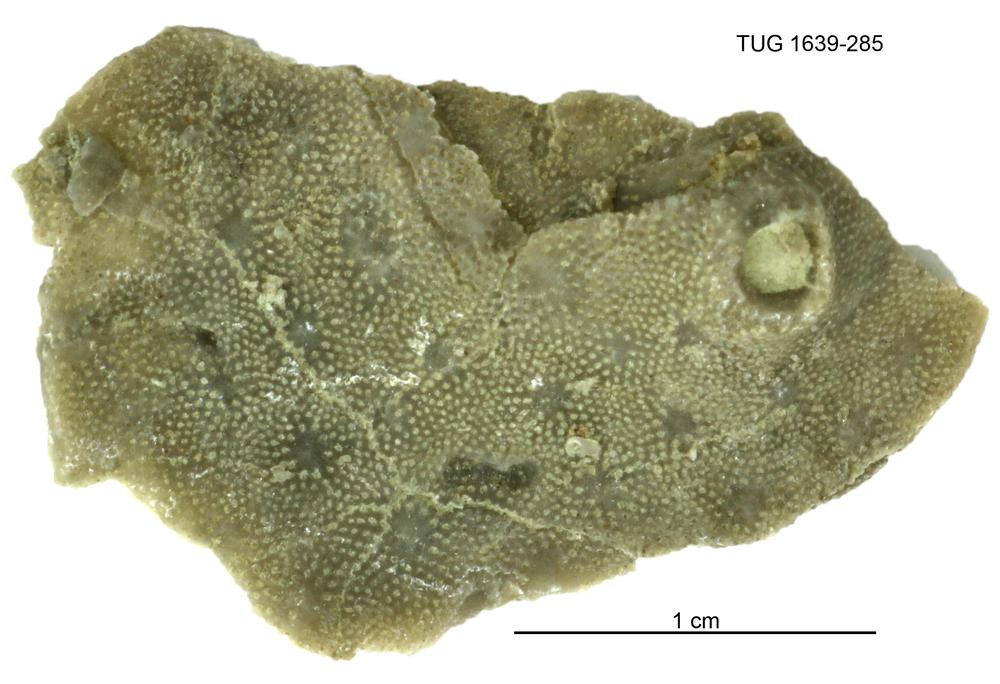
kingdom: Animalia
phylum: Bryozoa
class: Stenolaemata
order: Cystoporida
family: Fistuliporidae
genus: Fistulipora
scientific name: Fistulipora przhidolensis
